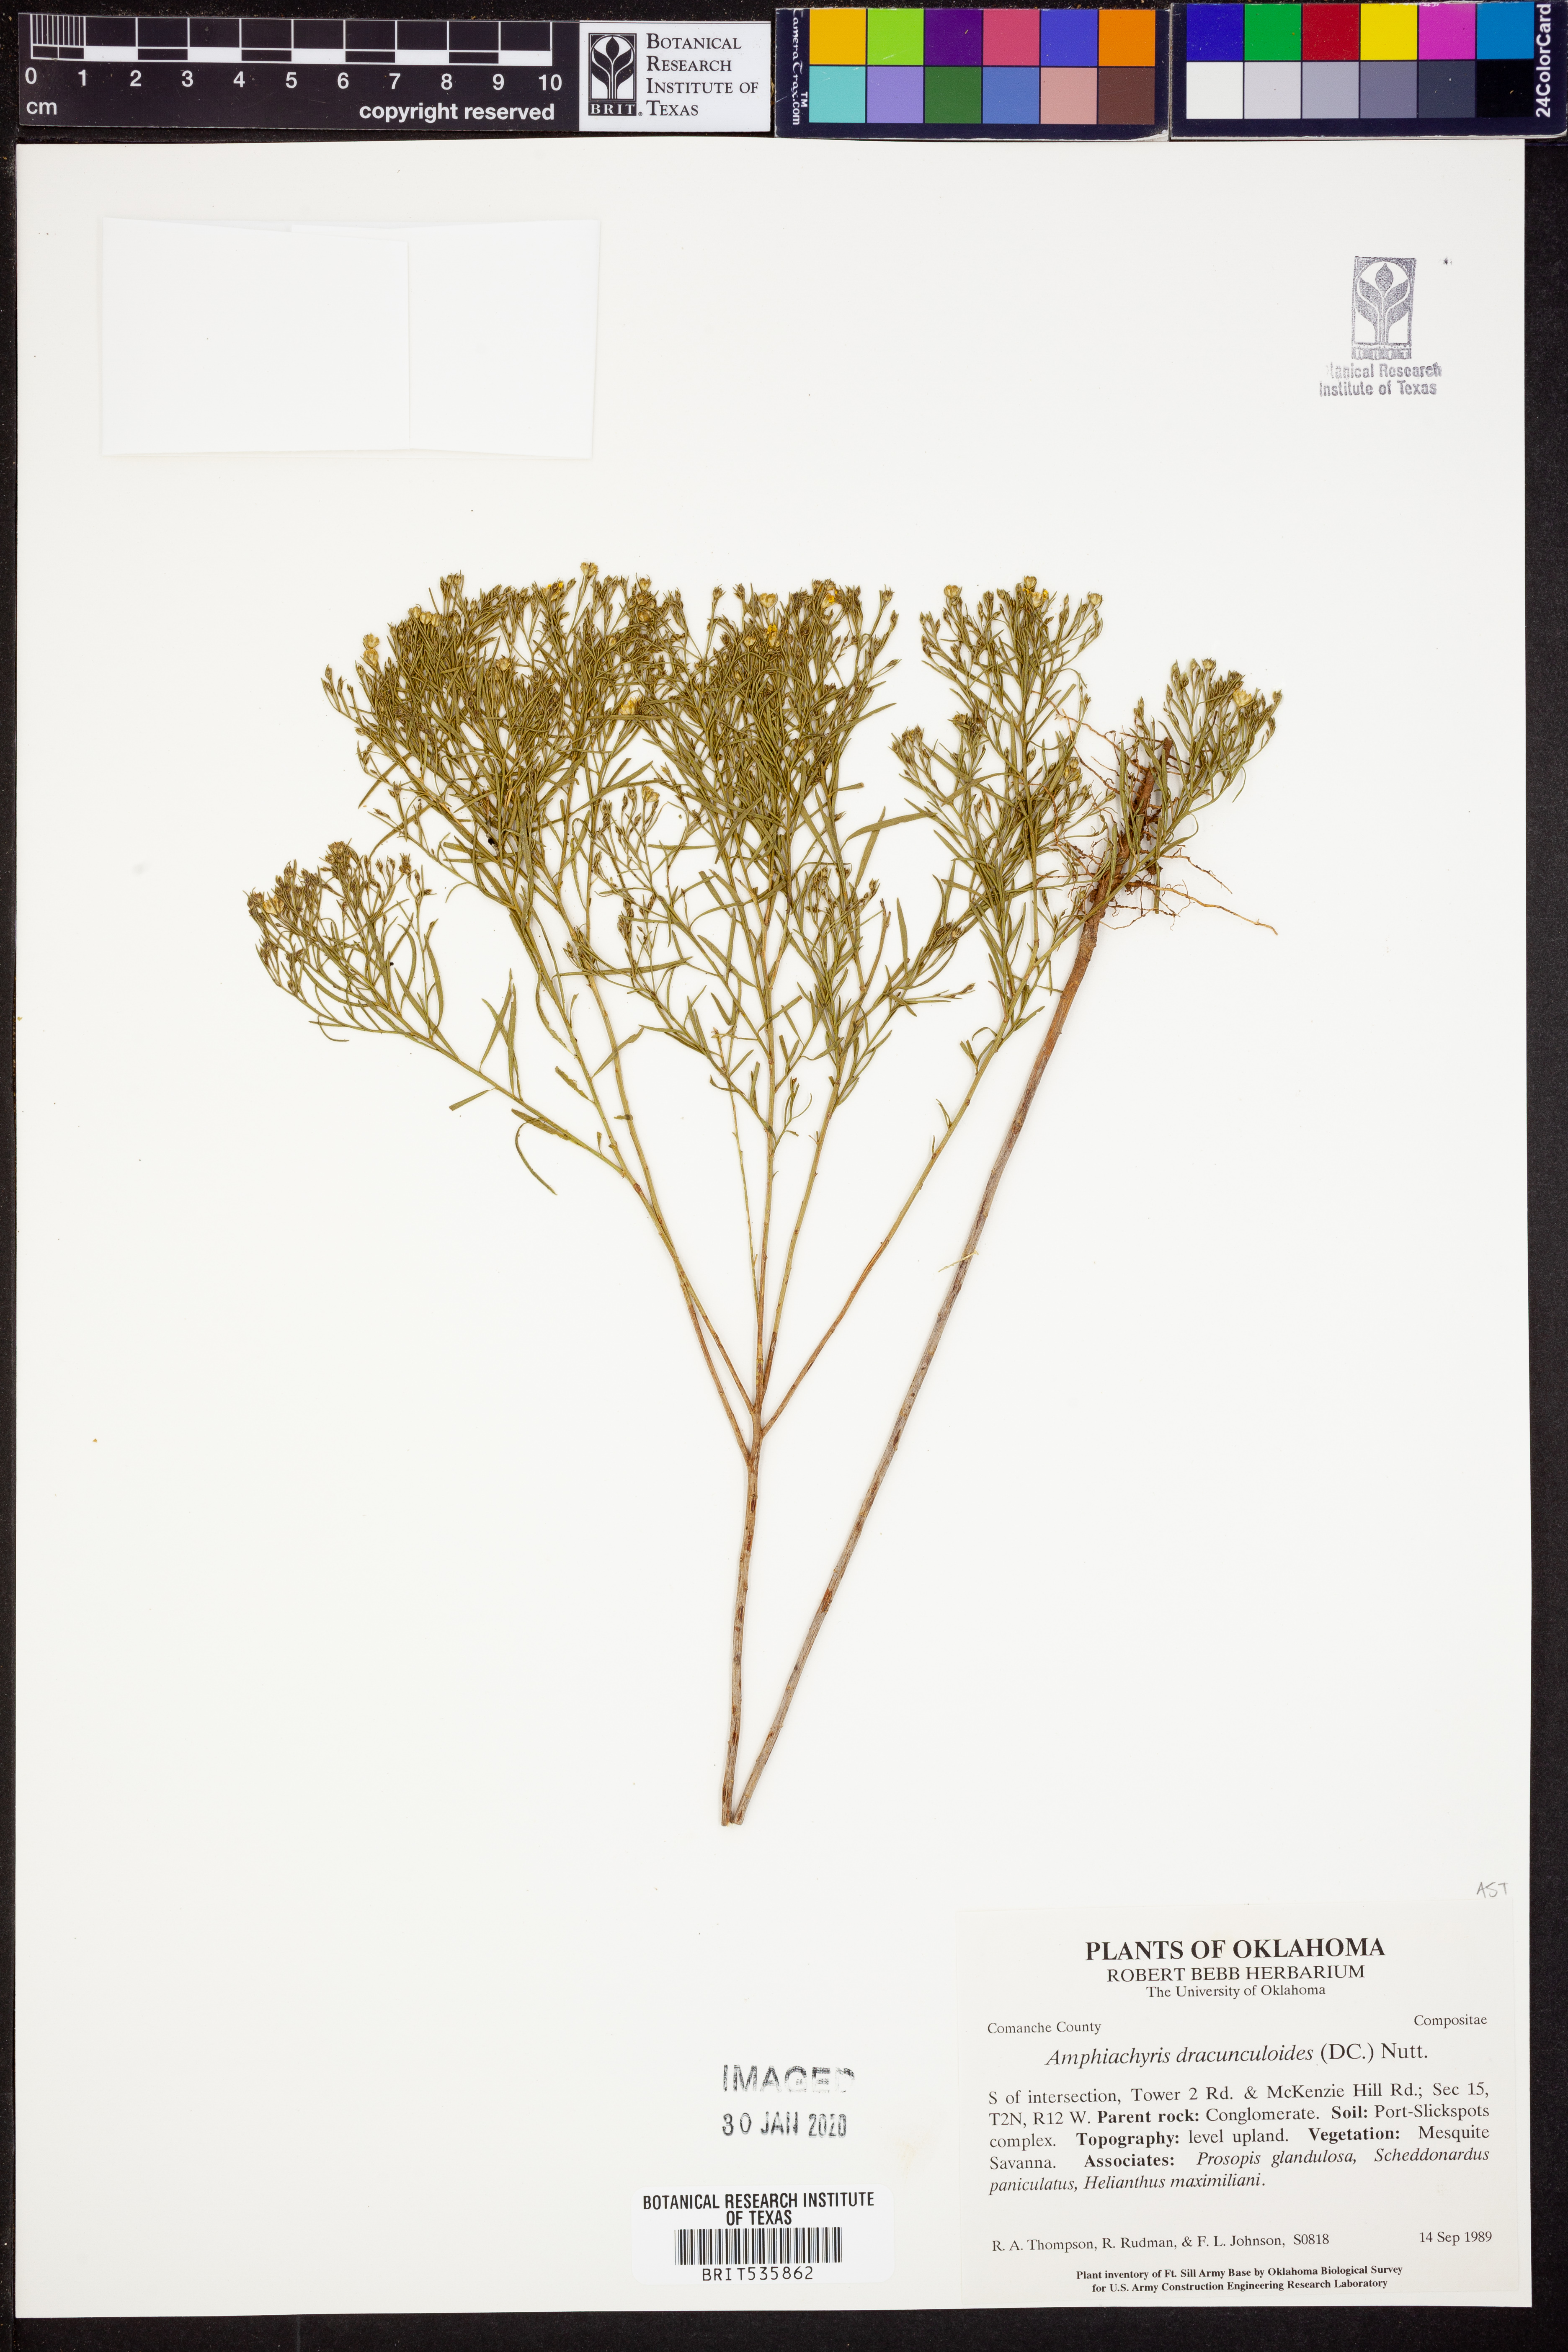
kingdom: Plantae
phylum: Tracheophyta
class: Magnoliopsida
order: Asterales
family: Asteraceae
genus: Amphiachyris
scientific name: Amphiachyris dracunculoides
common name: Broomweed
